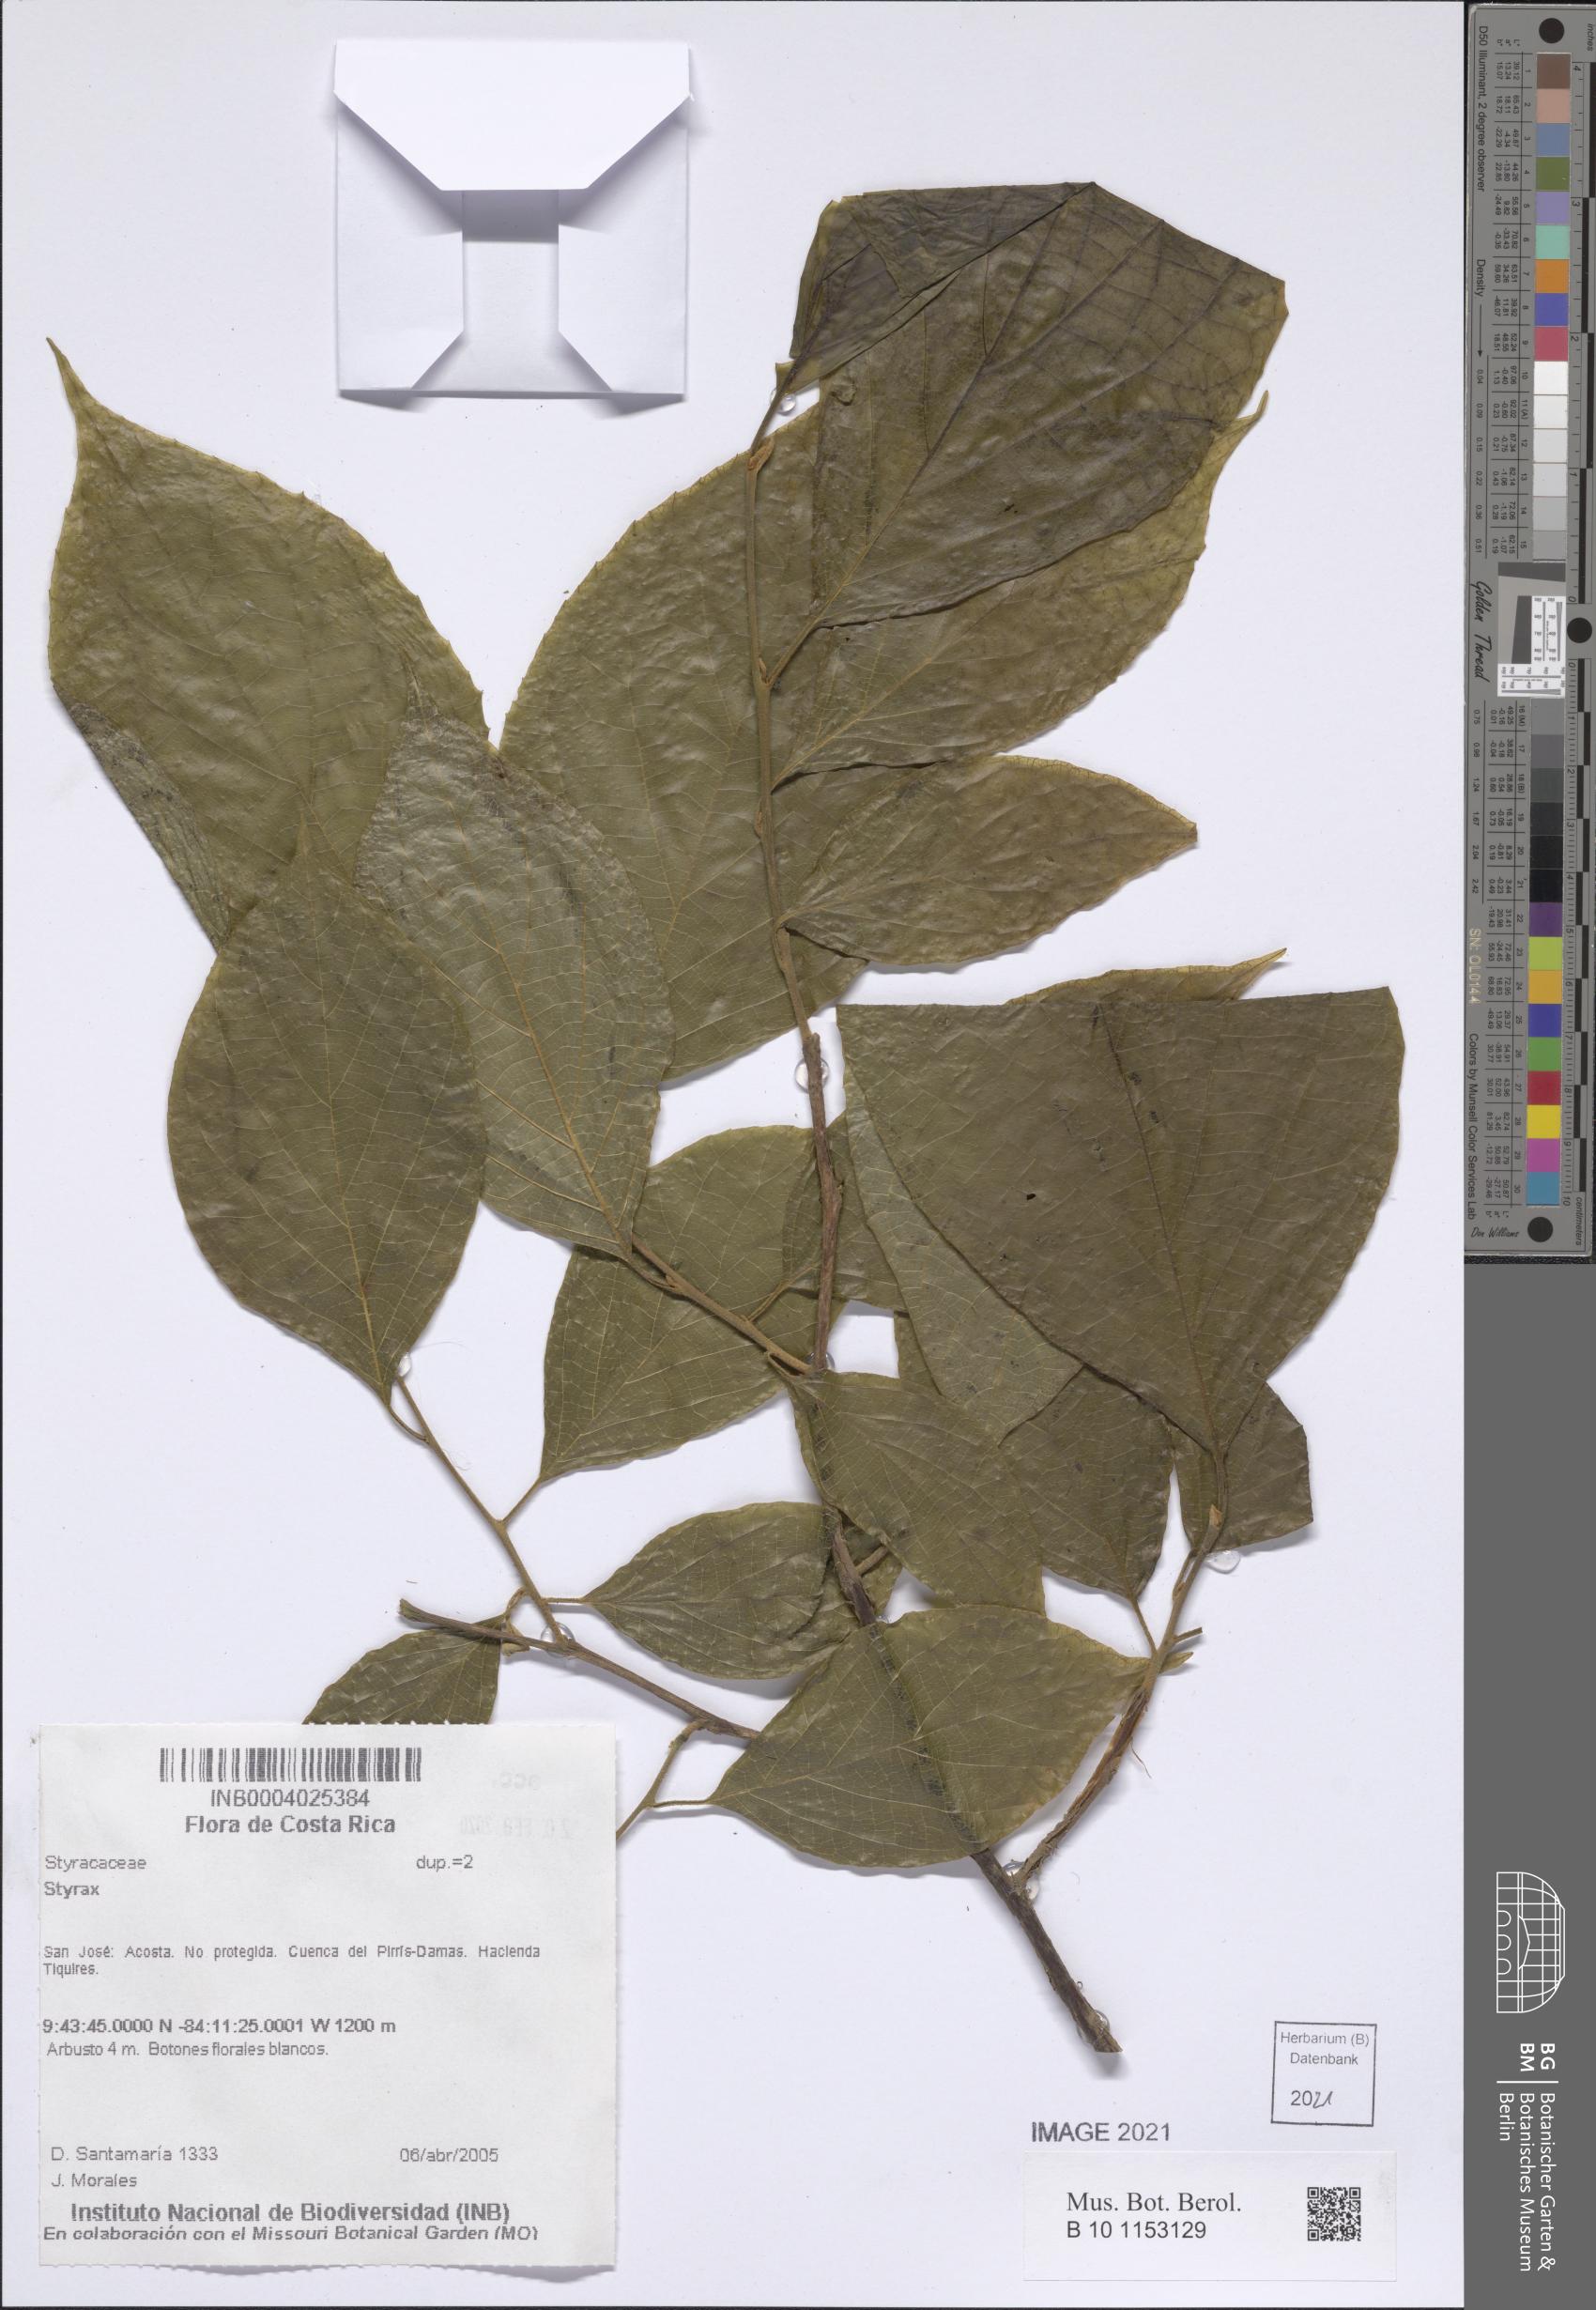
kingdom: Plantae
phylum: Tracheophyta
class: Magnoliopsida
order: Ericales
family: Styracaceae
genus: Styrax
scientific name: Styrax
